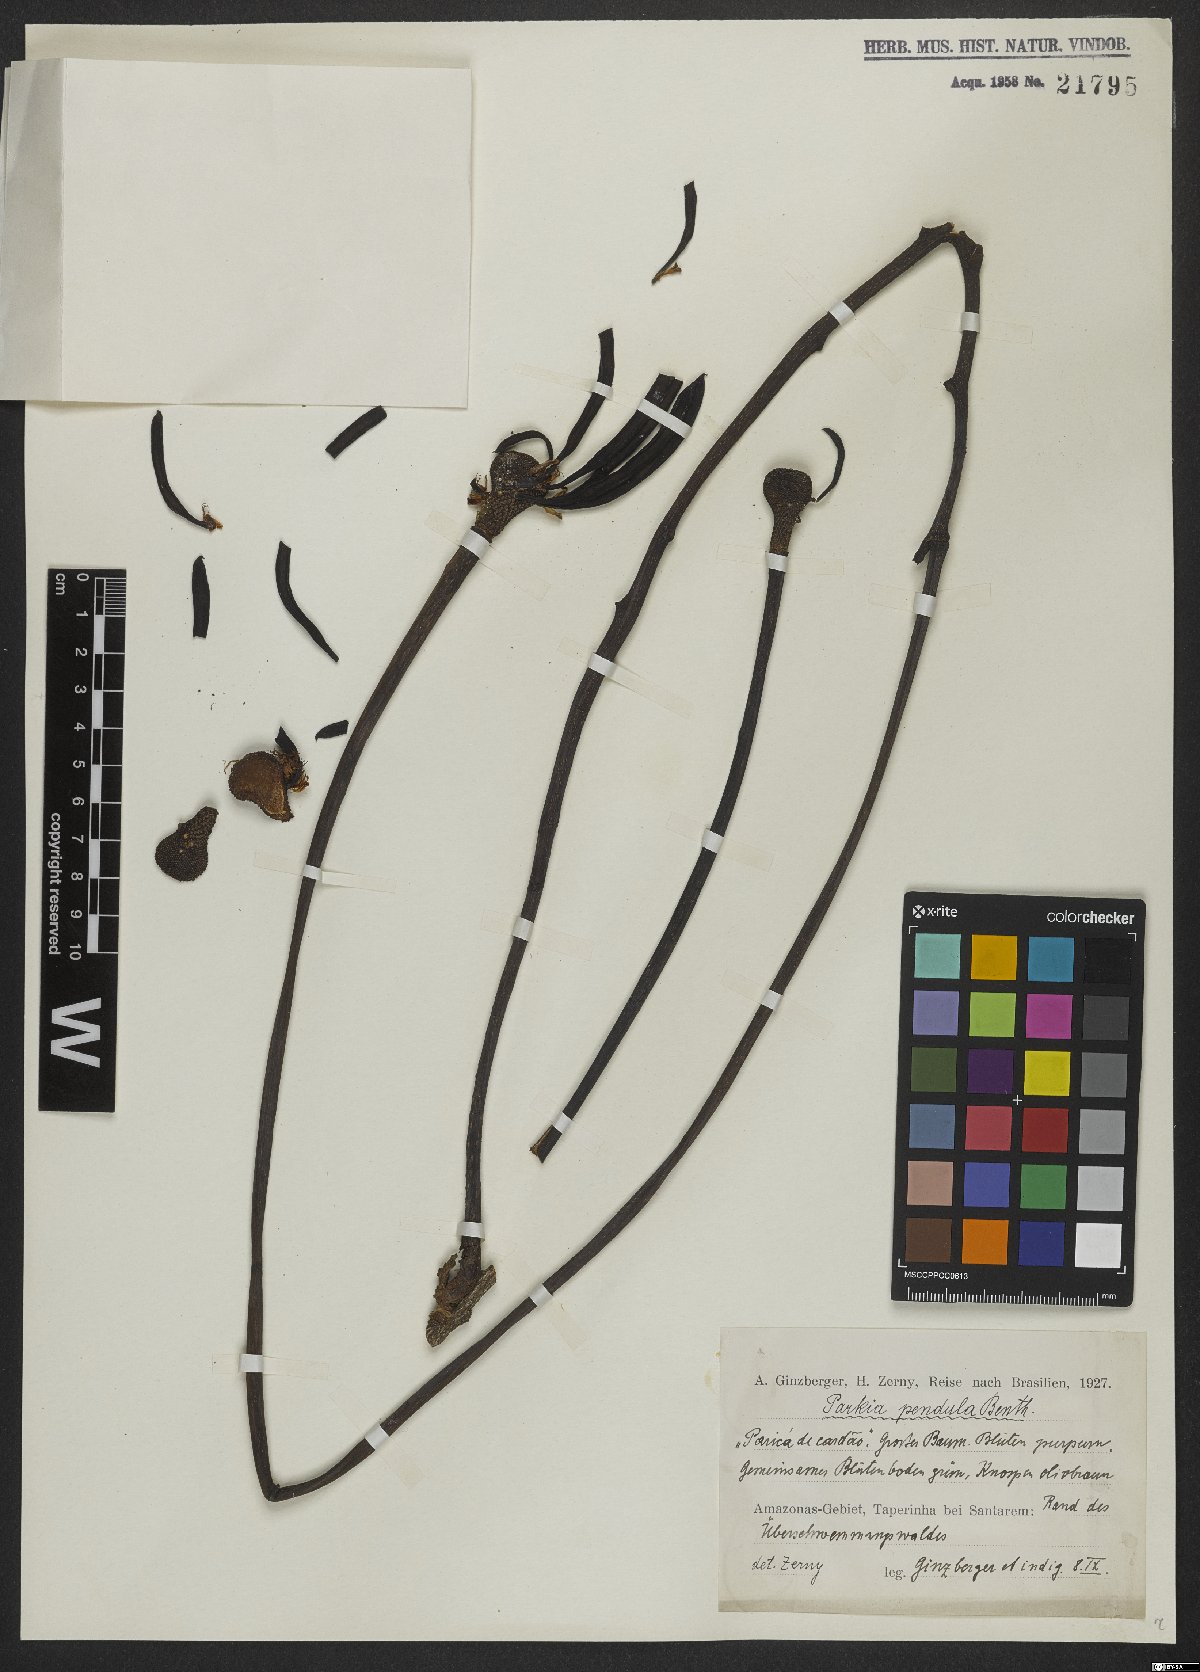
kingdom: Plantae
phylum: Tracheophyta
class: Magnoliopsida
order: Fabales
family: Fabaceae
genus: Parkia
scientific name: Parkia pendula
